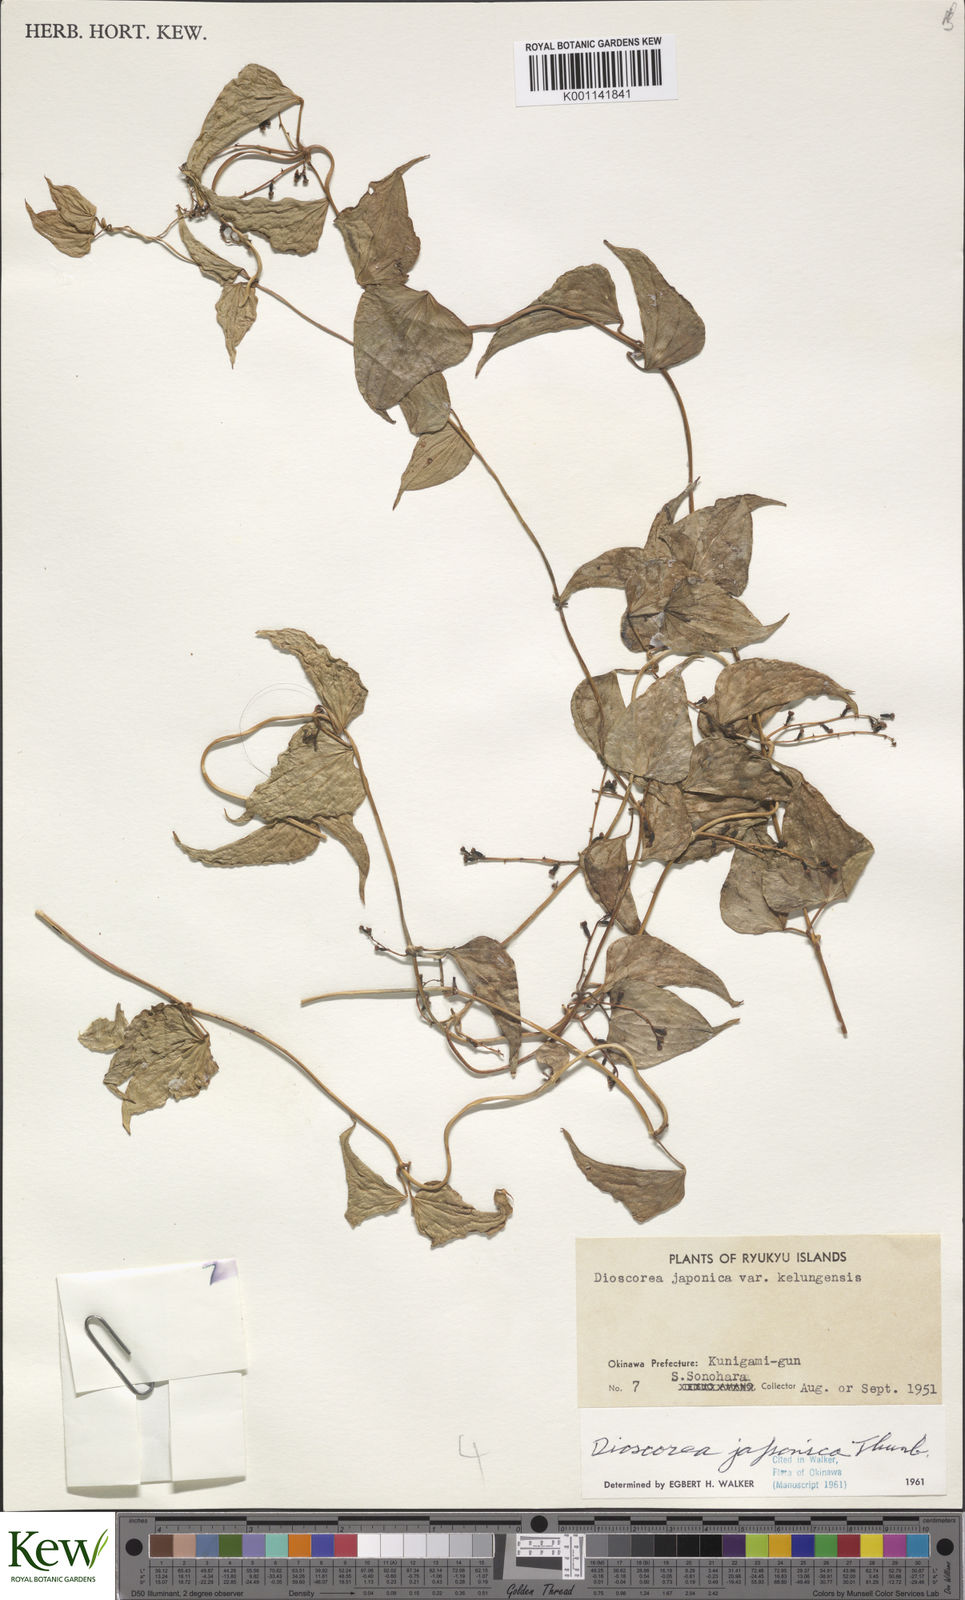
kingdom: Plantae
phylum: Tracheophyta
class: Liliopsida
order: Dioscoreales
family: Dioscoreaceae
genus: Dioscorea
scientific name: Dioscorea japonica
